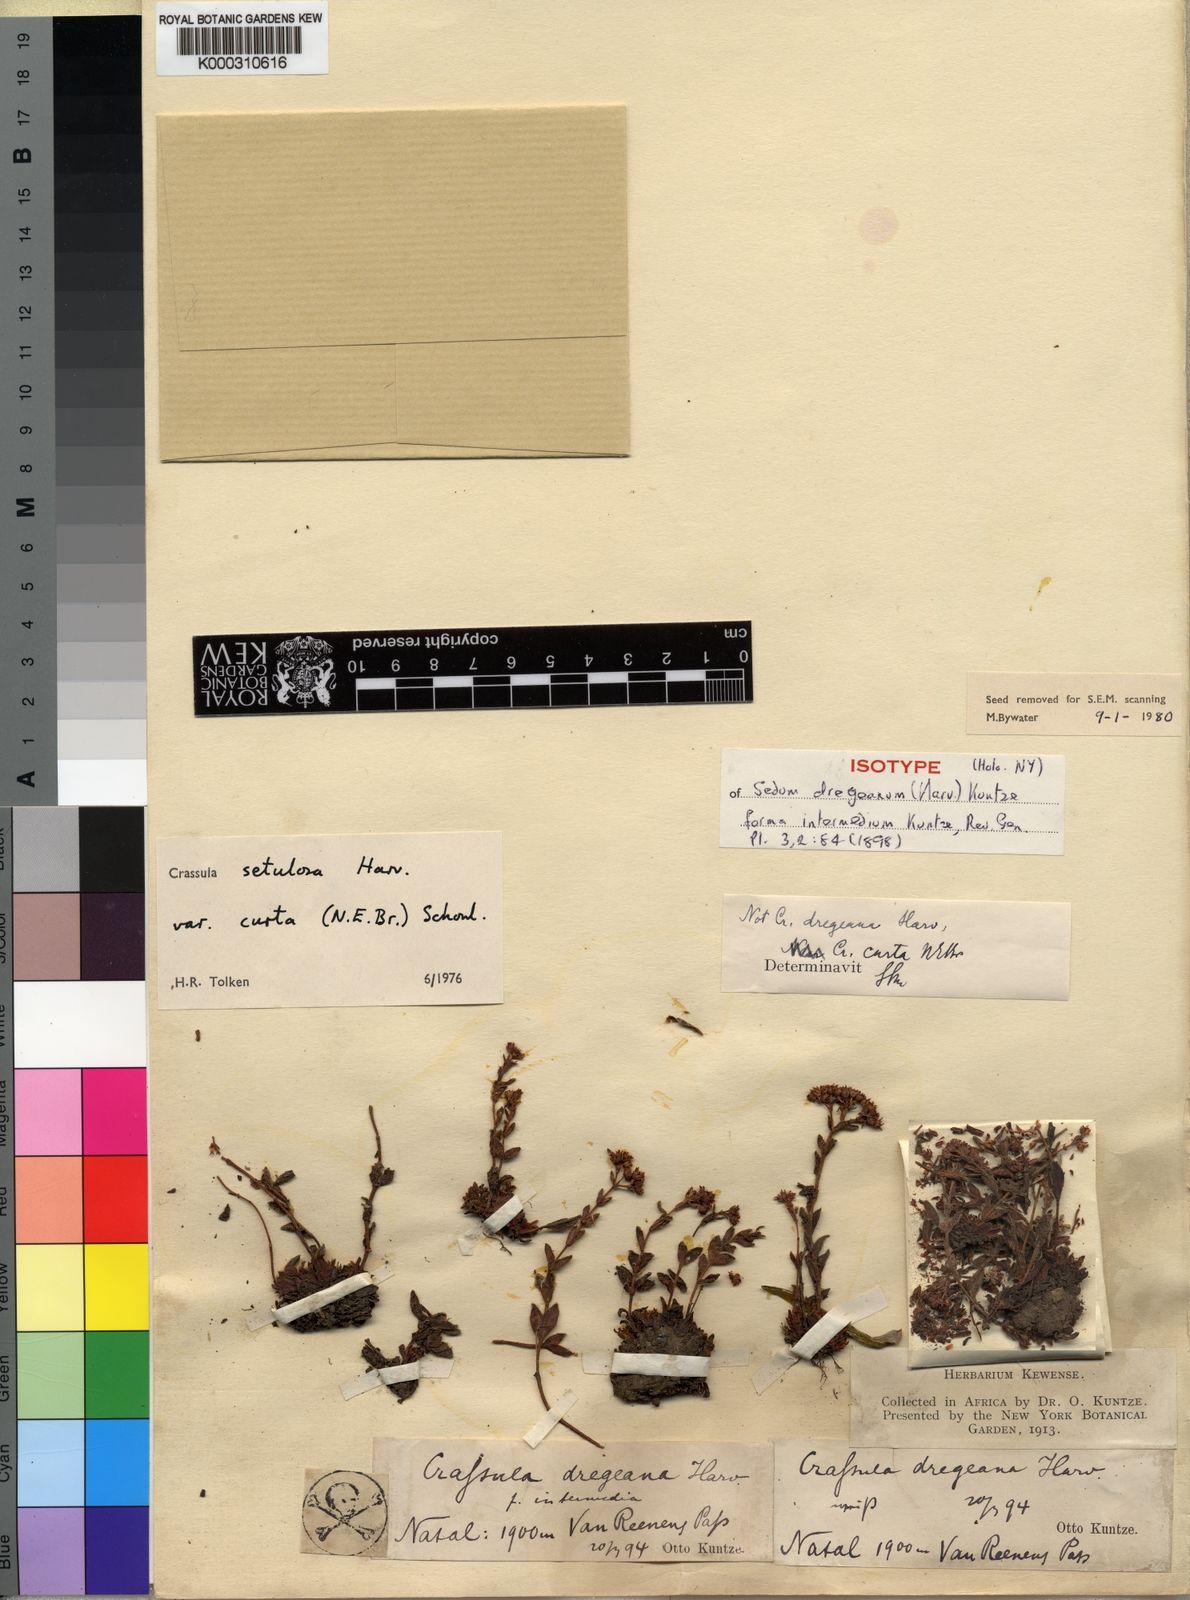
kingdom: Plantae
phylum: Tracheophyta
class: Magnoliopsida
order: Saxifragales
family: Crassulaceae
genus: Crassula
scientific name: Crassula setulosa
